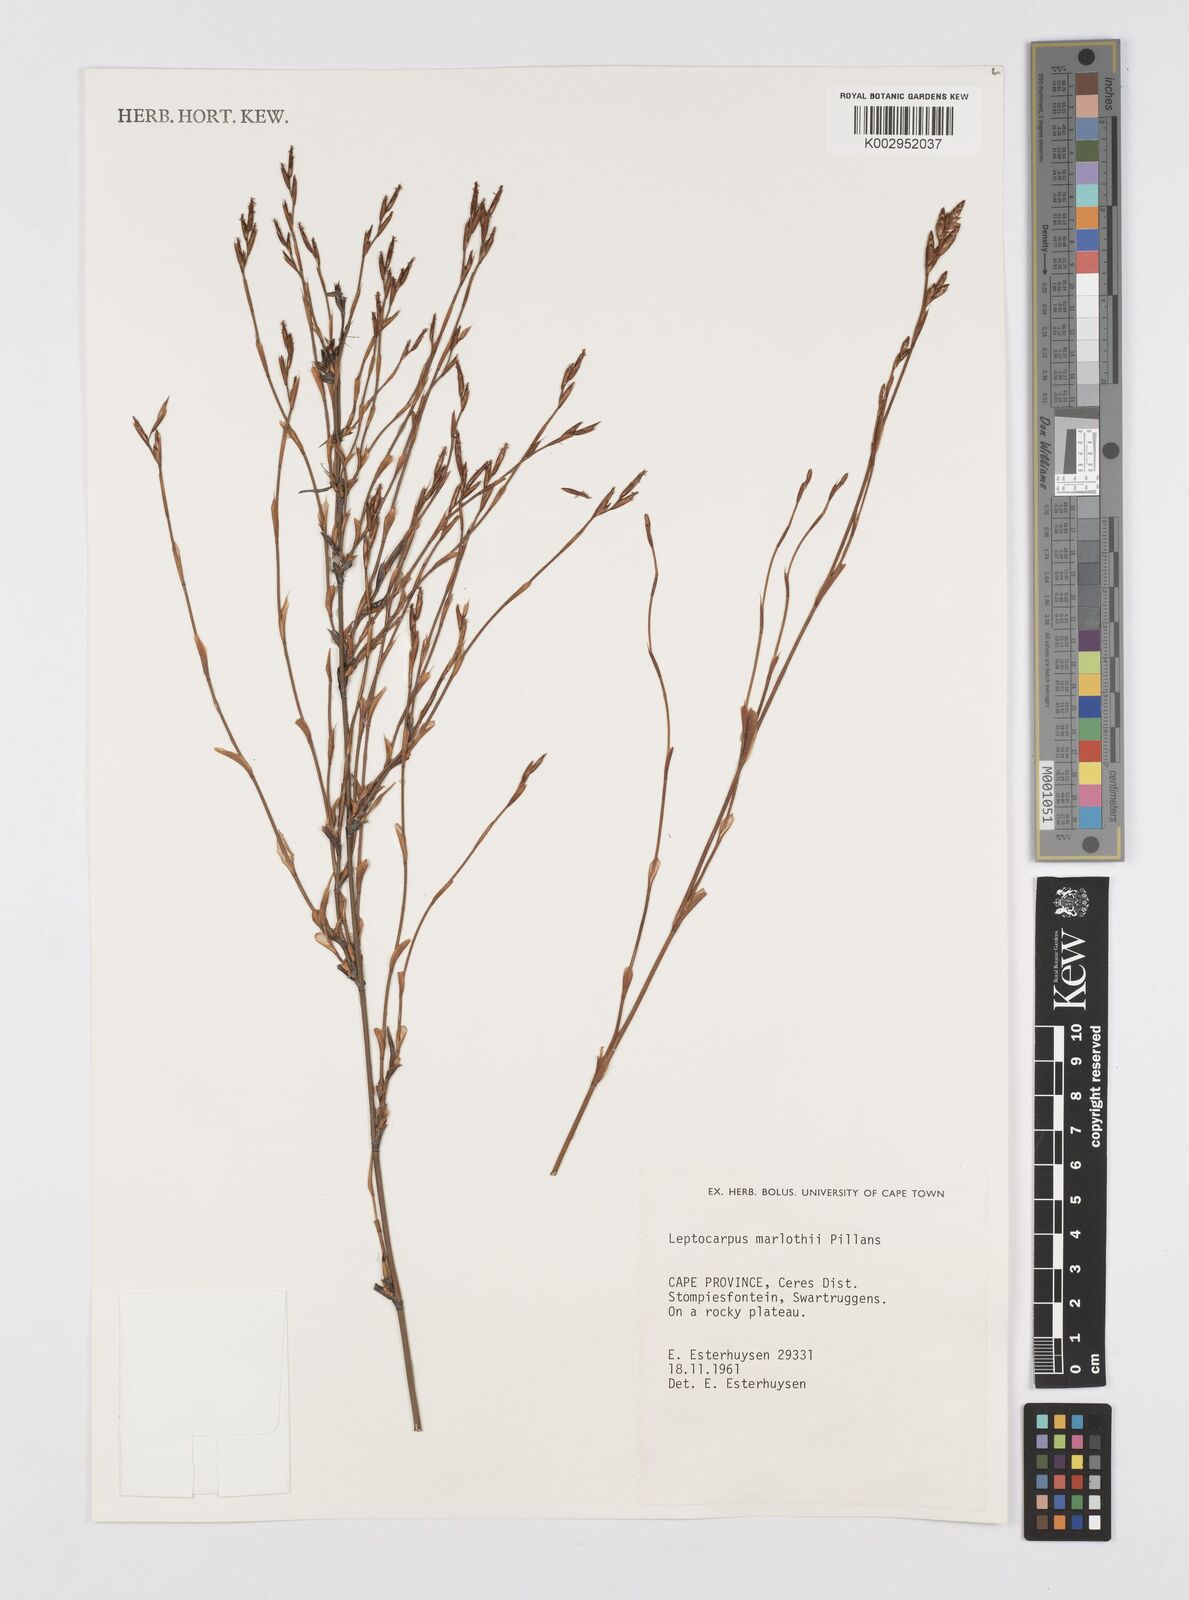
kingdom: Plantae
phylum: Tracheophyta
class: Liliopsida
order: Poales
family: Restionaceae
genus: Restio
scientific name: Restio marlothii
